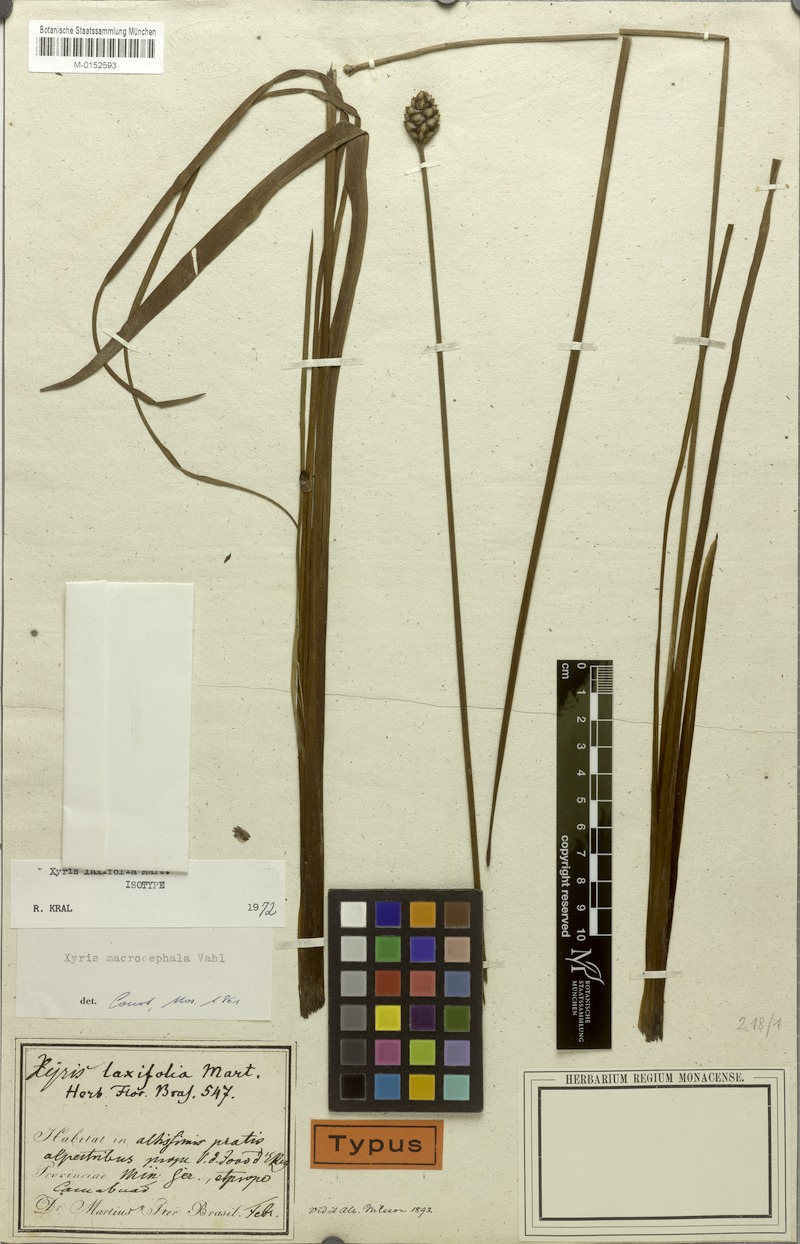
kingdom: Plantae
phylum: Tracheophyta
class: Liliopsida
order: Poales
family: Xyridaceae
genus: Xyris
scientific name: Xyris laxifolia
